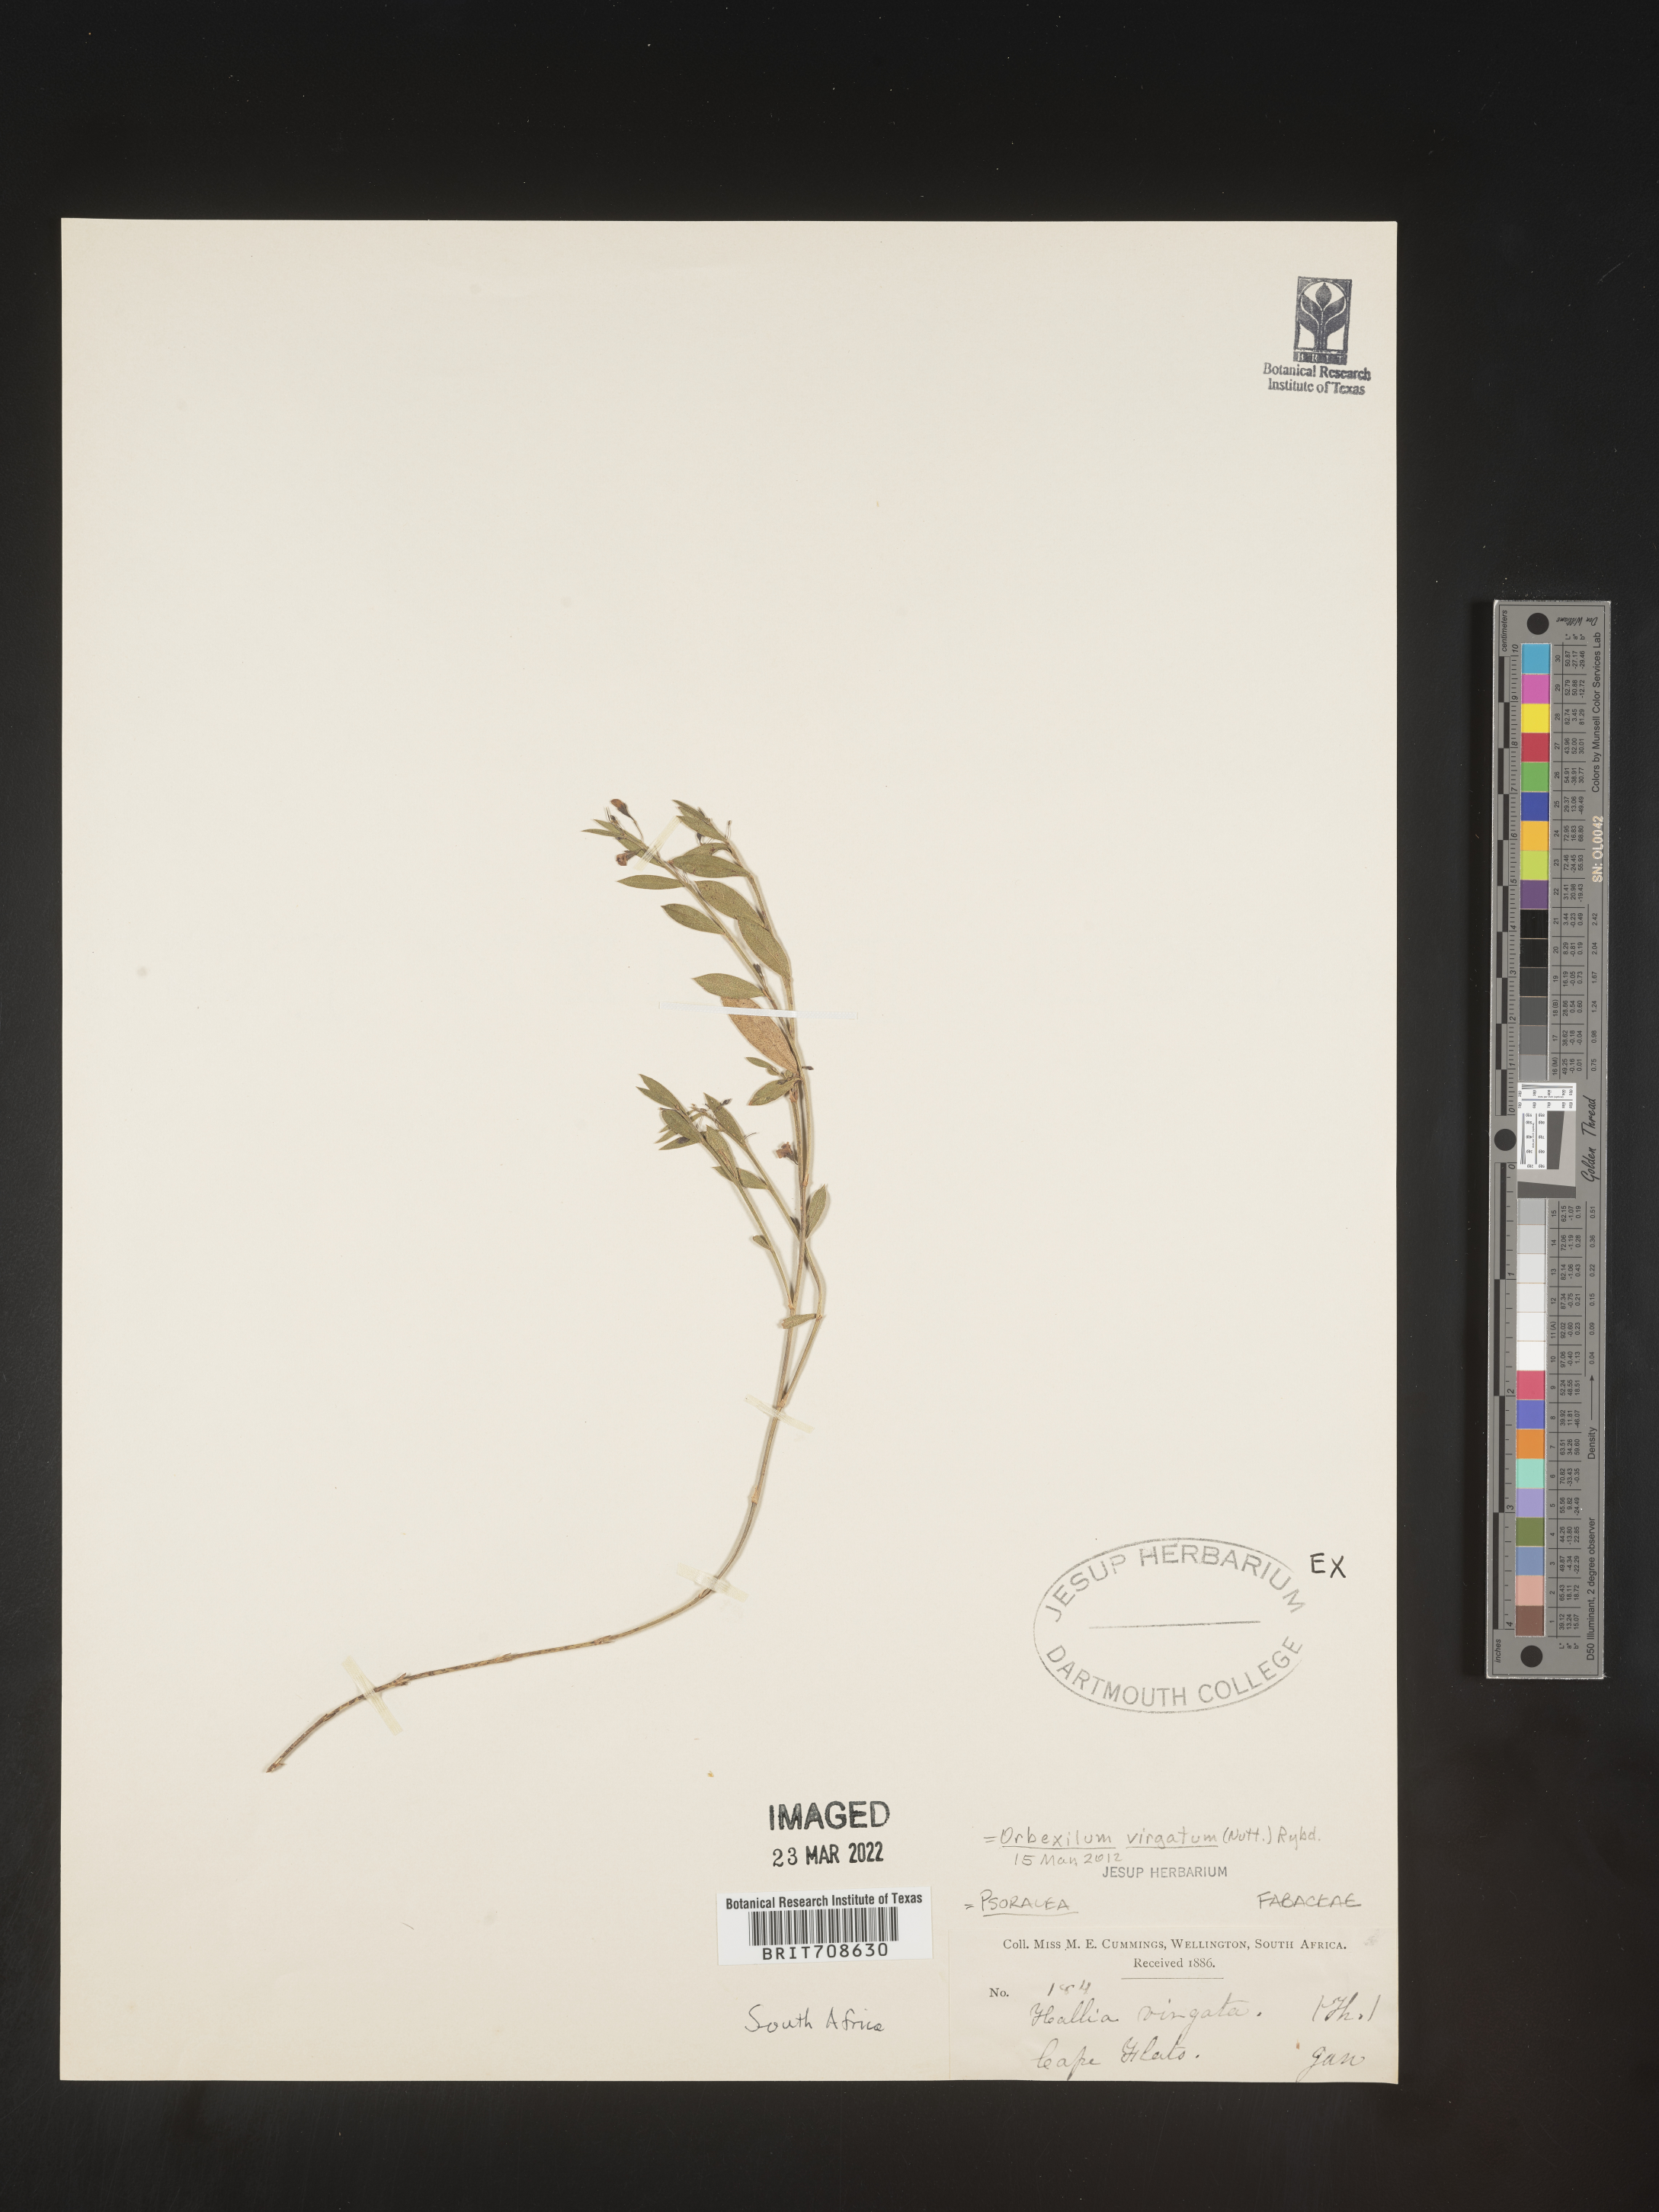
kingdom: Plantae
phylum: Tracheophyta
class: Magnoliopsida
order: Fabales
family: Fabaceae
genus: Orbexilum
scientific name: Orbexilum
